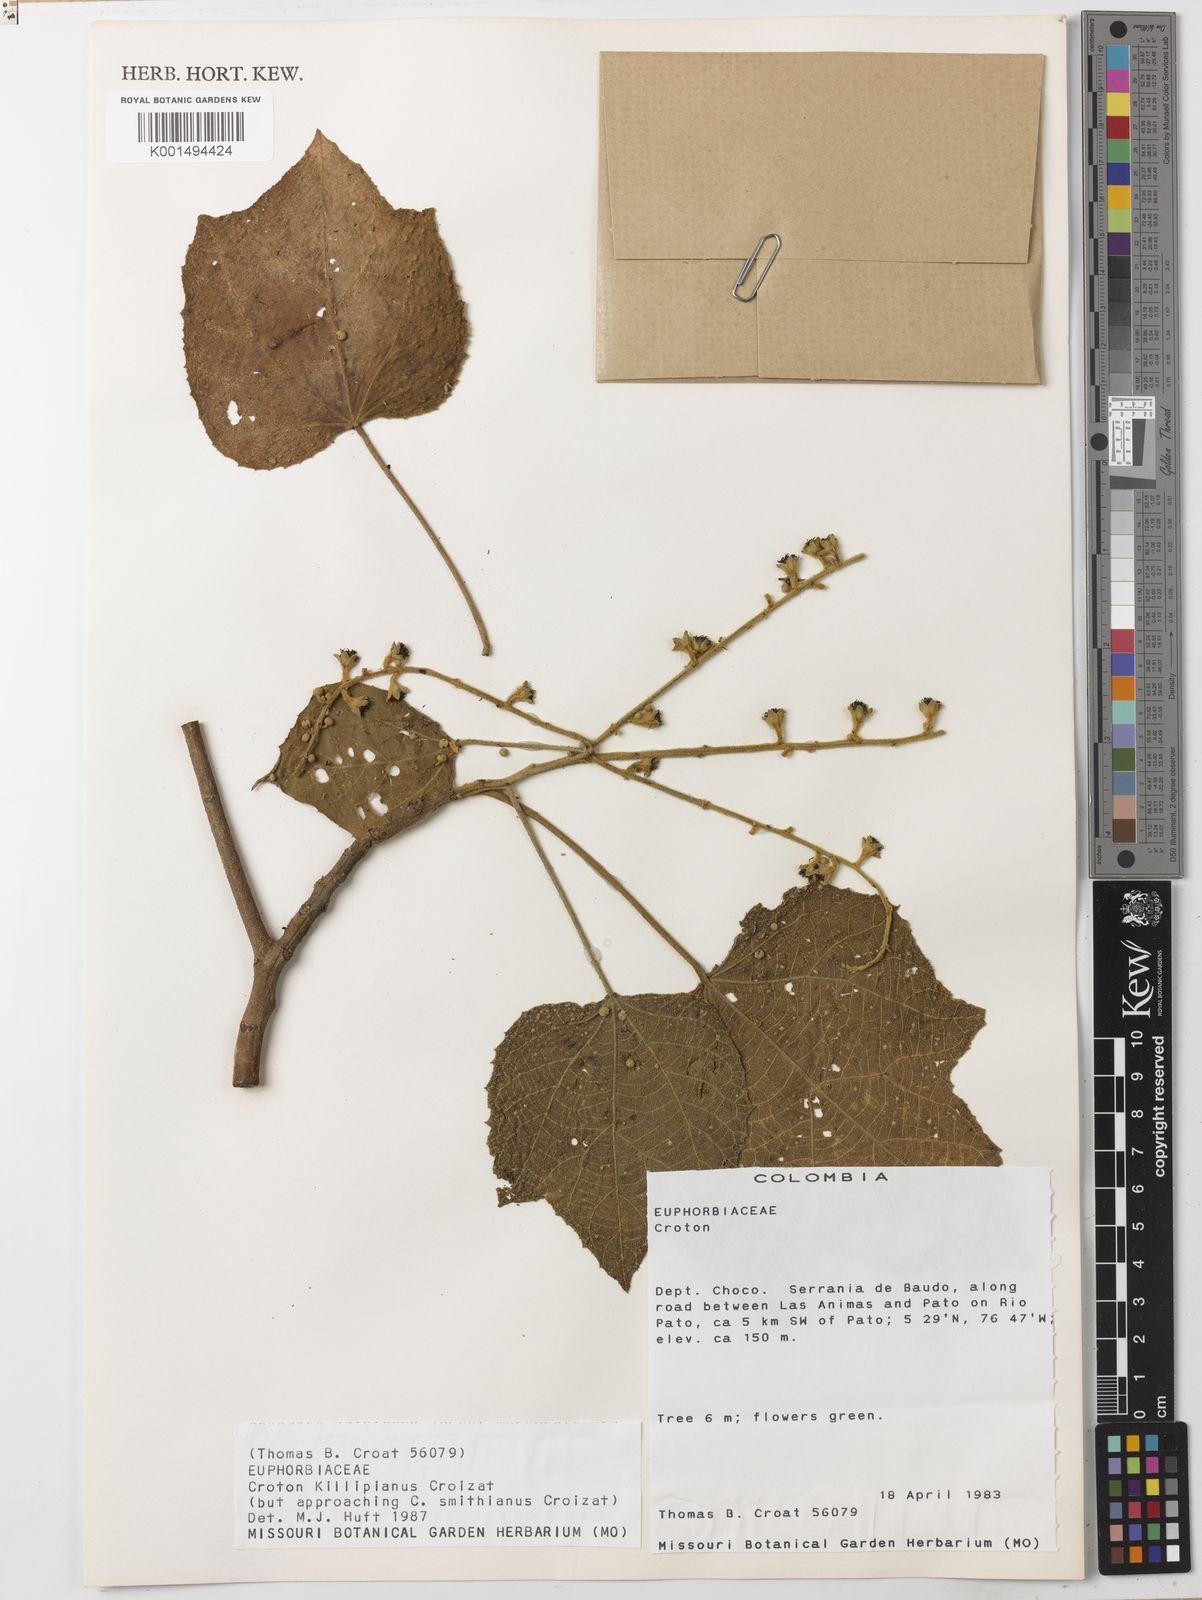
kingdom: Plantae
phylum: Tracheophyta
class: Magnoliopsida
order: Malpighiales
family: Euphorbiaceae
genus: Croton
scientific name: Croton killipianus
